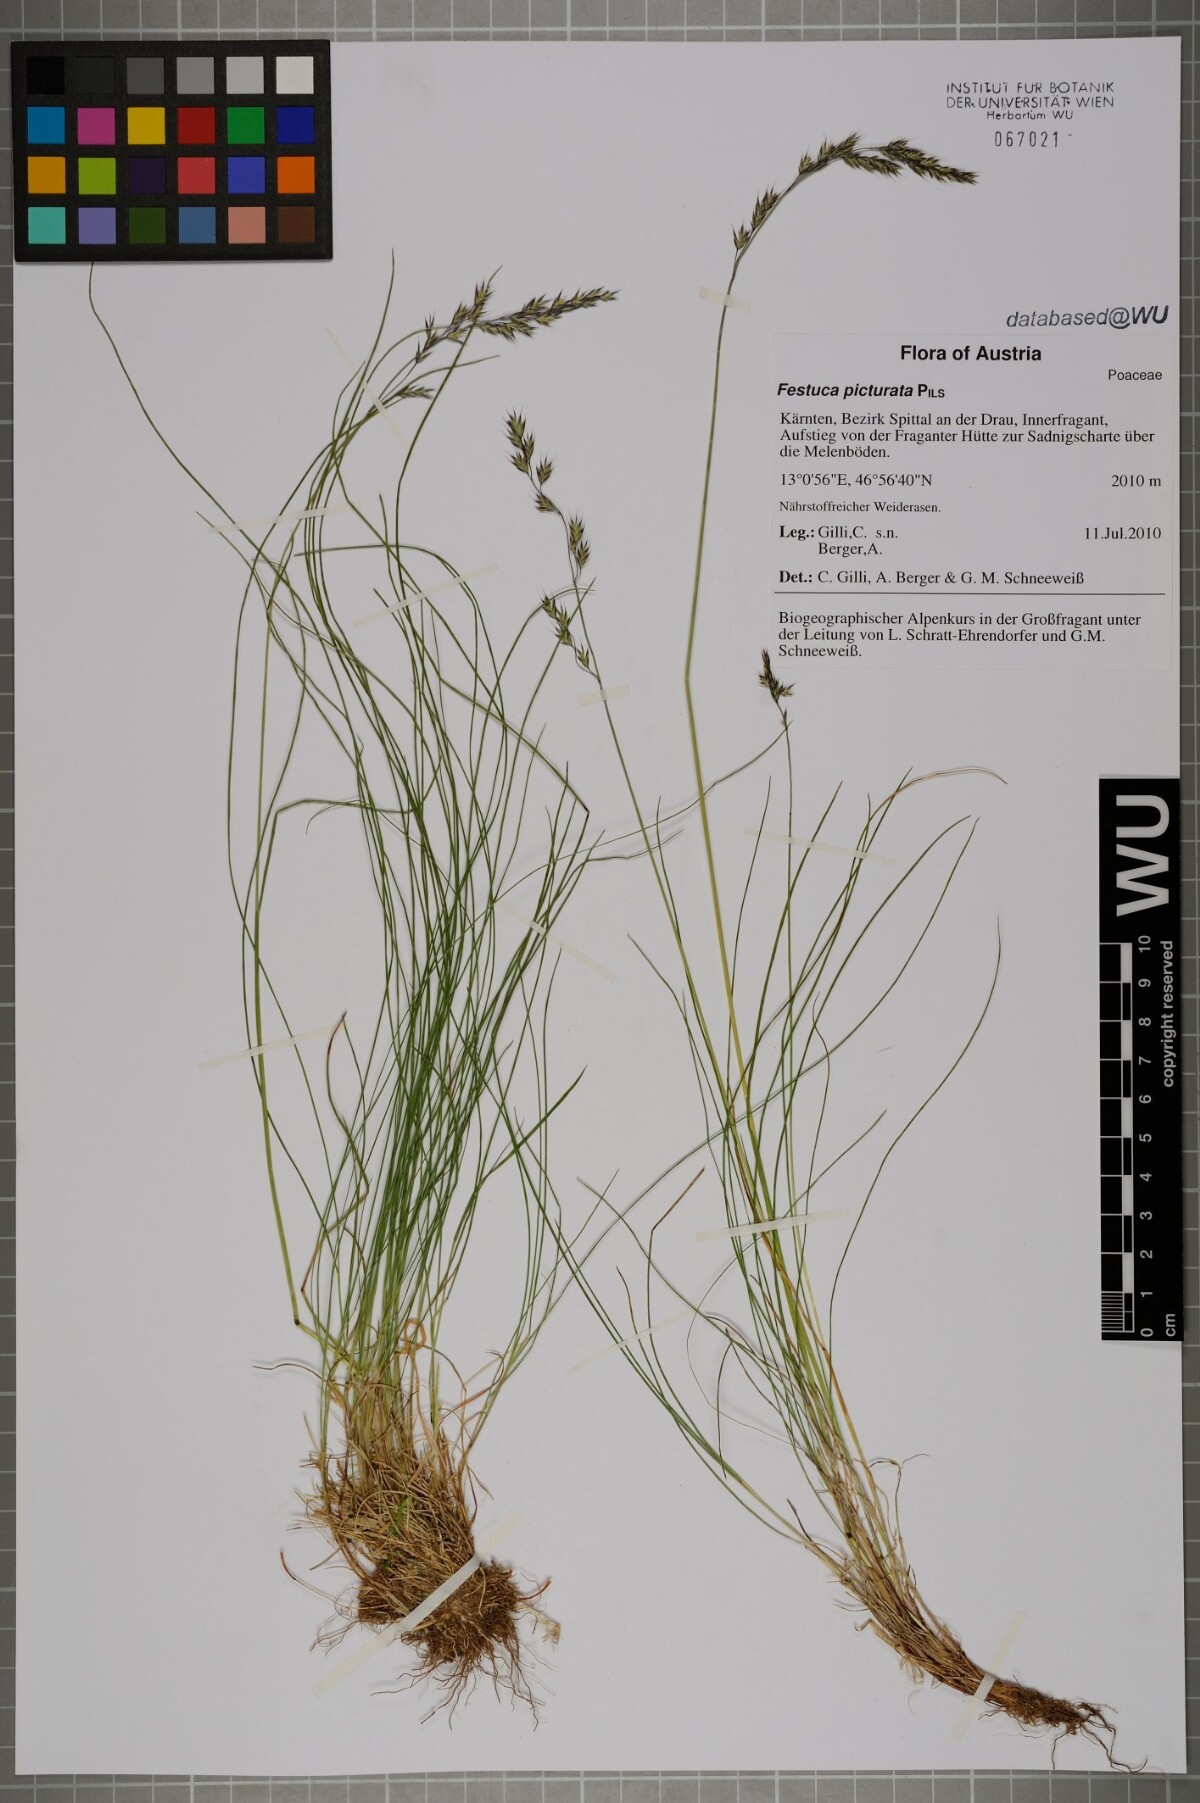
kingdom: Plantae
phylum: Tracheophyta
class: Liliopsida
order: Poales
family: Poaceae
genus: Festuca
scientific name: Festuca picturata
